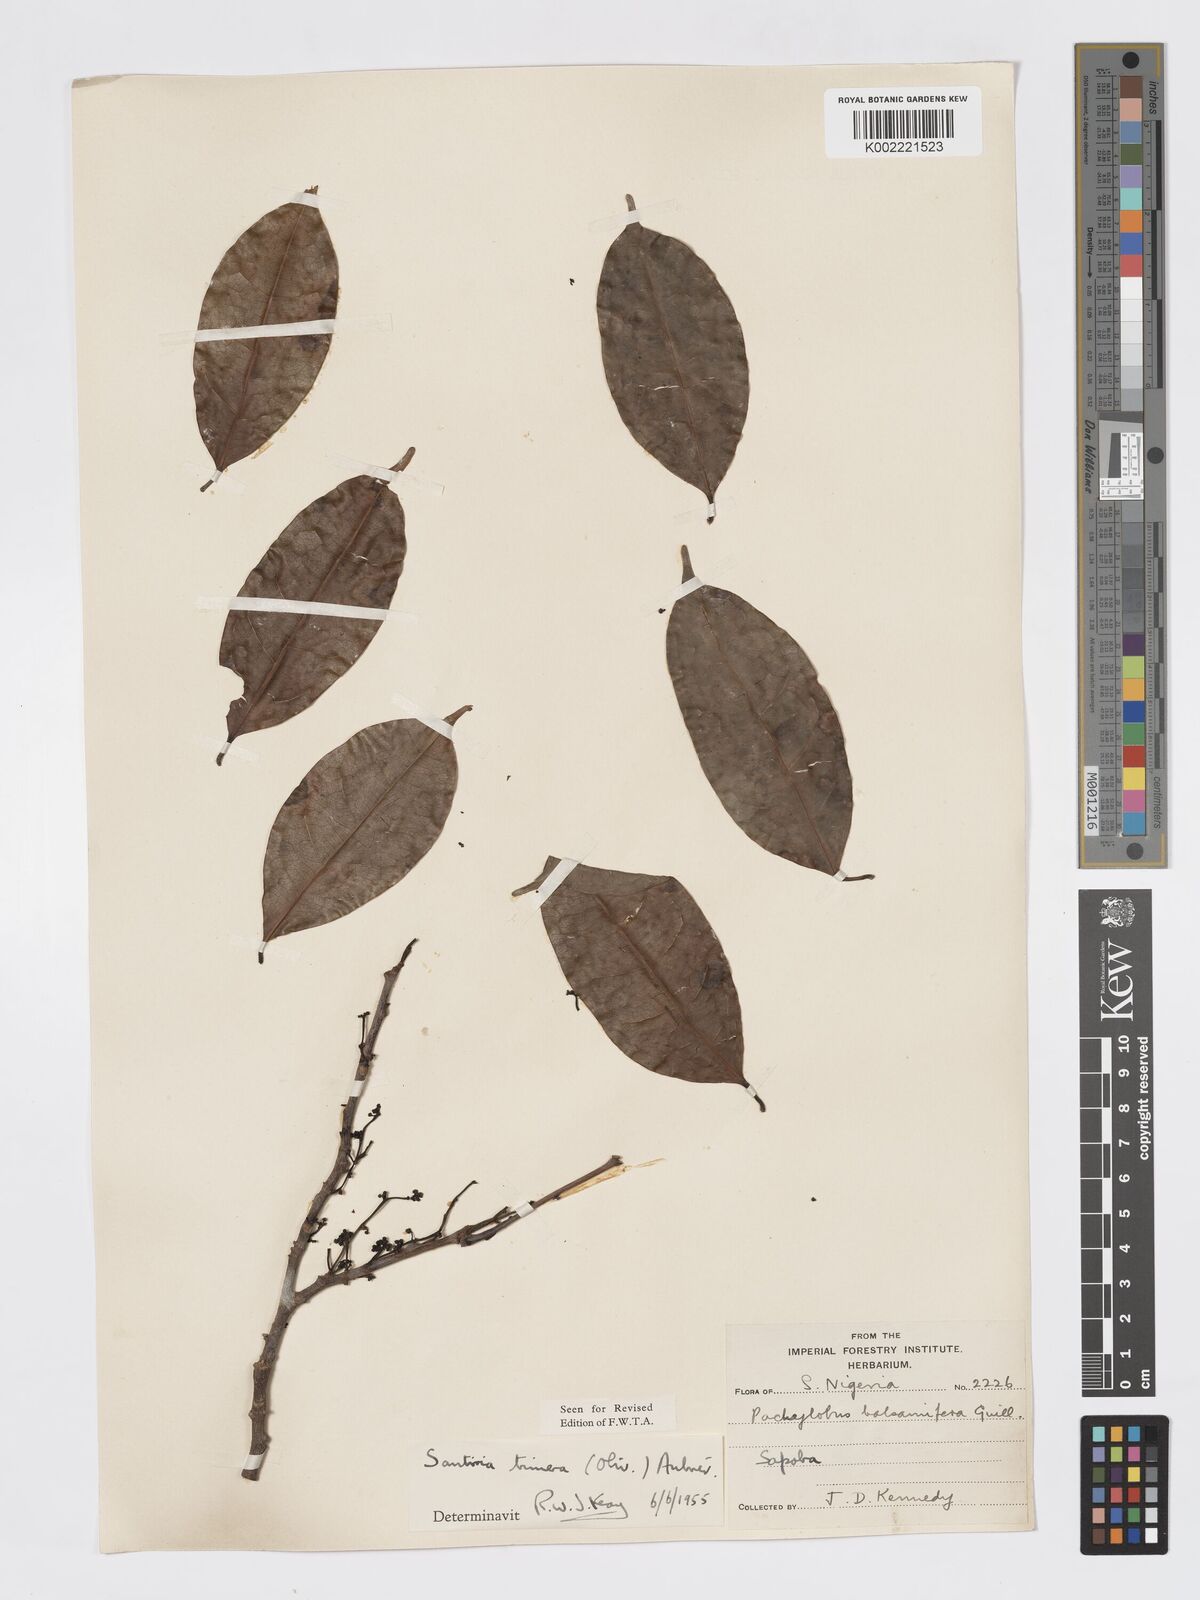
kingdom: Plantae
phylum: Tracheophyta
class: Magnoliopsida
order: Sapindales
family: Burseraceae
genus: Pachylobus
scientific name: Pachylobus trimerus
